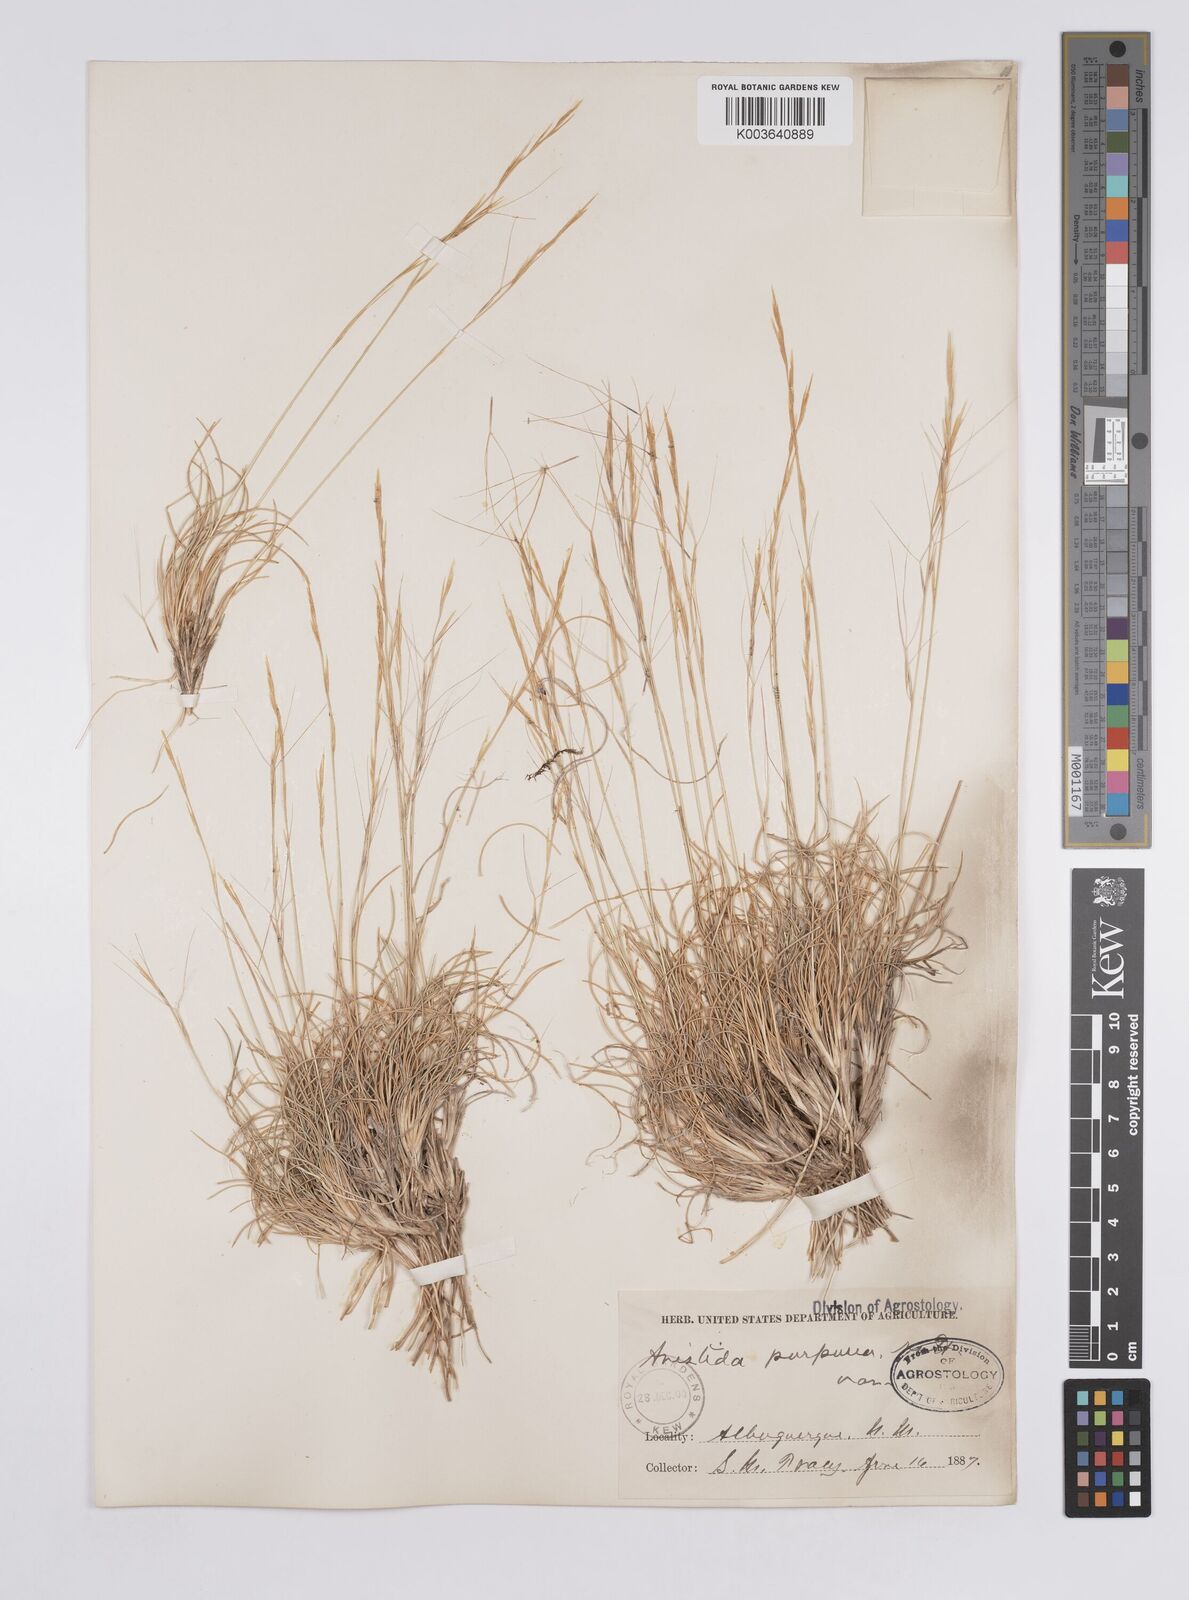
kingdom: Plantae
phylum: Tracheophyta
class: Liliopsida
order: Poales
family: Poaceae
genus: Aristida
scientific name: Aristida purpurea
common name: Purple threeawn
